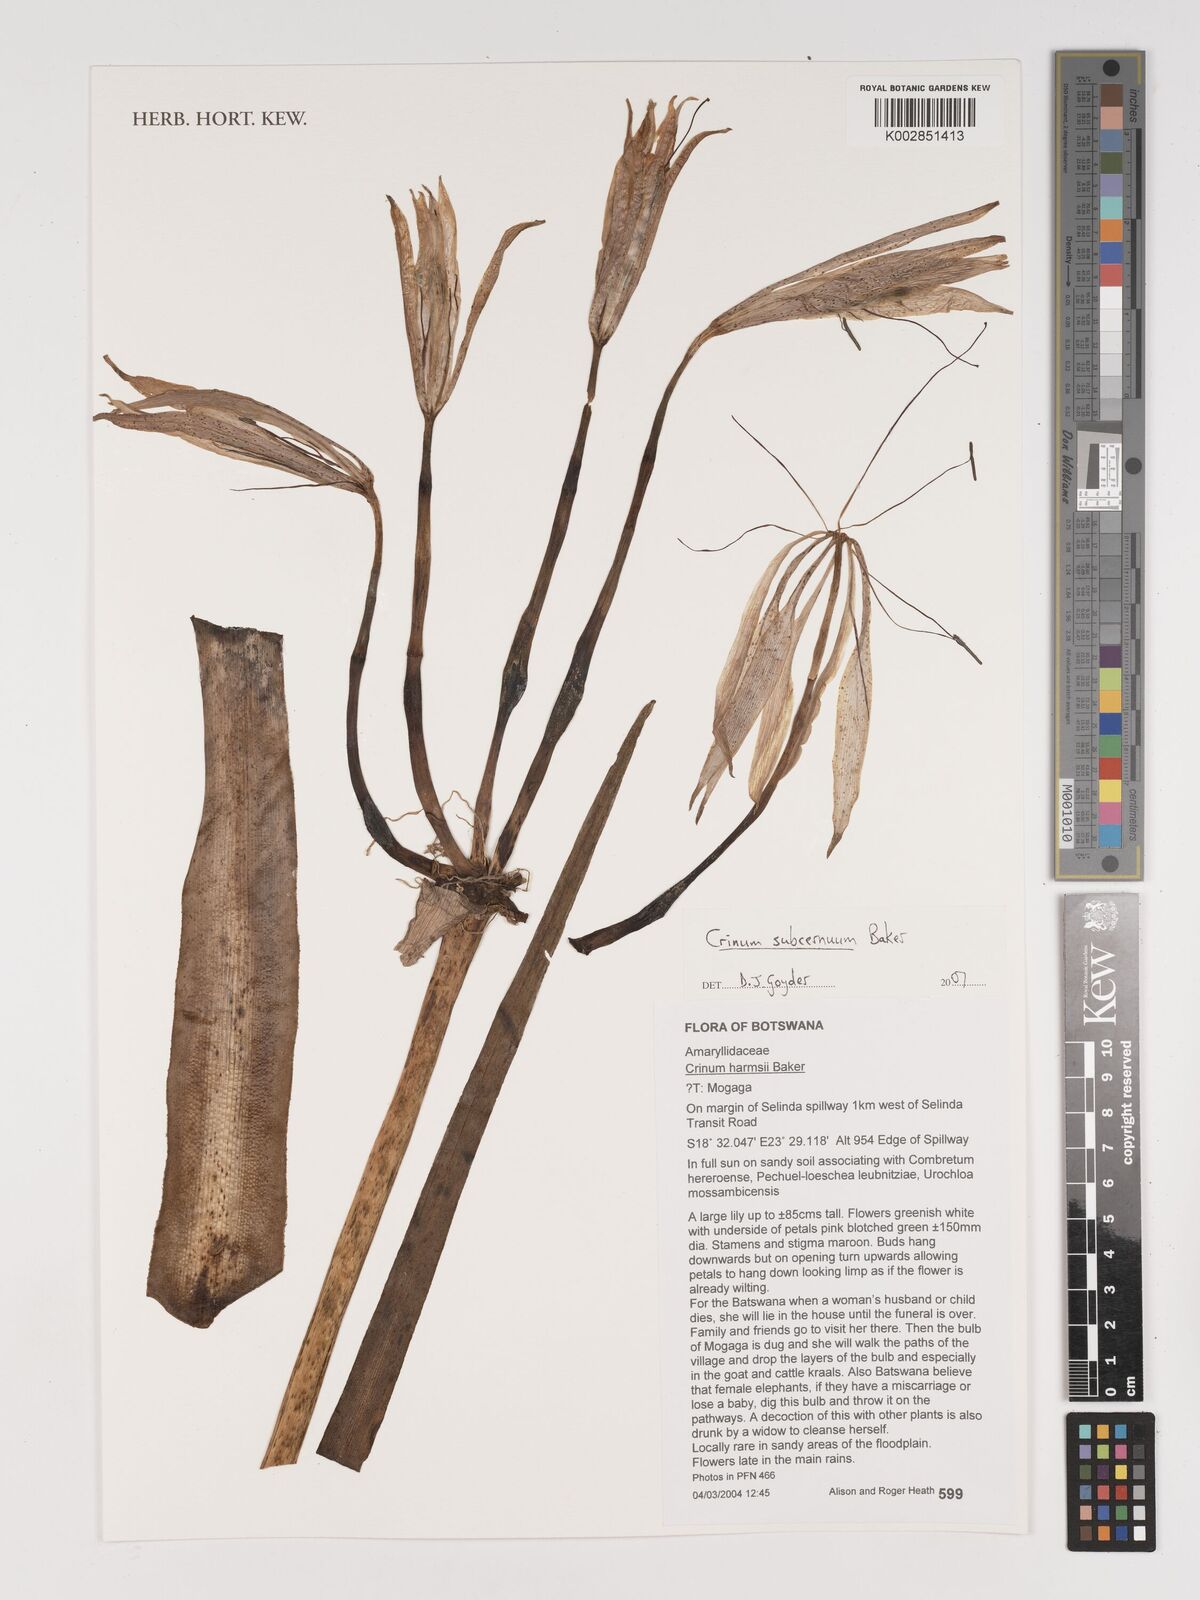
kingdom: Plantae
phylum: Tracheophyta
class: Liliopsida
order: Asparagales
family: Amaryllidaceae
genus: Crinum
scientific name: Crinum subcernuum
